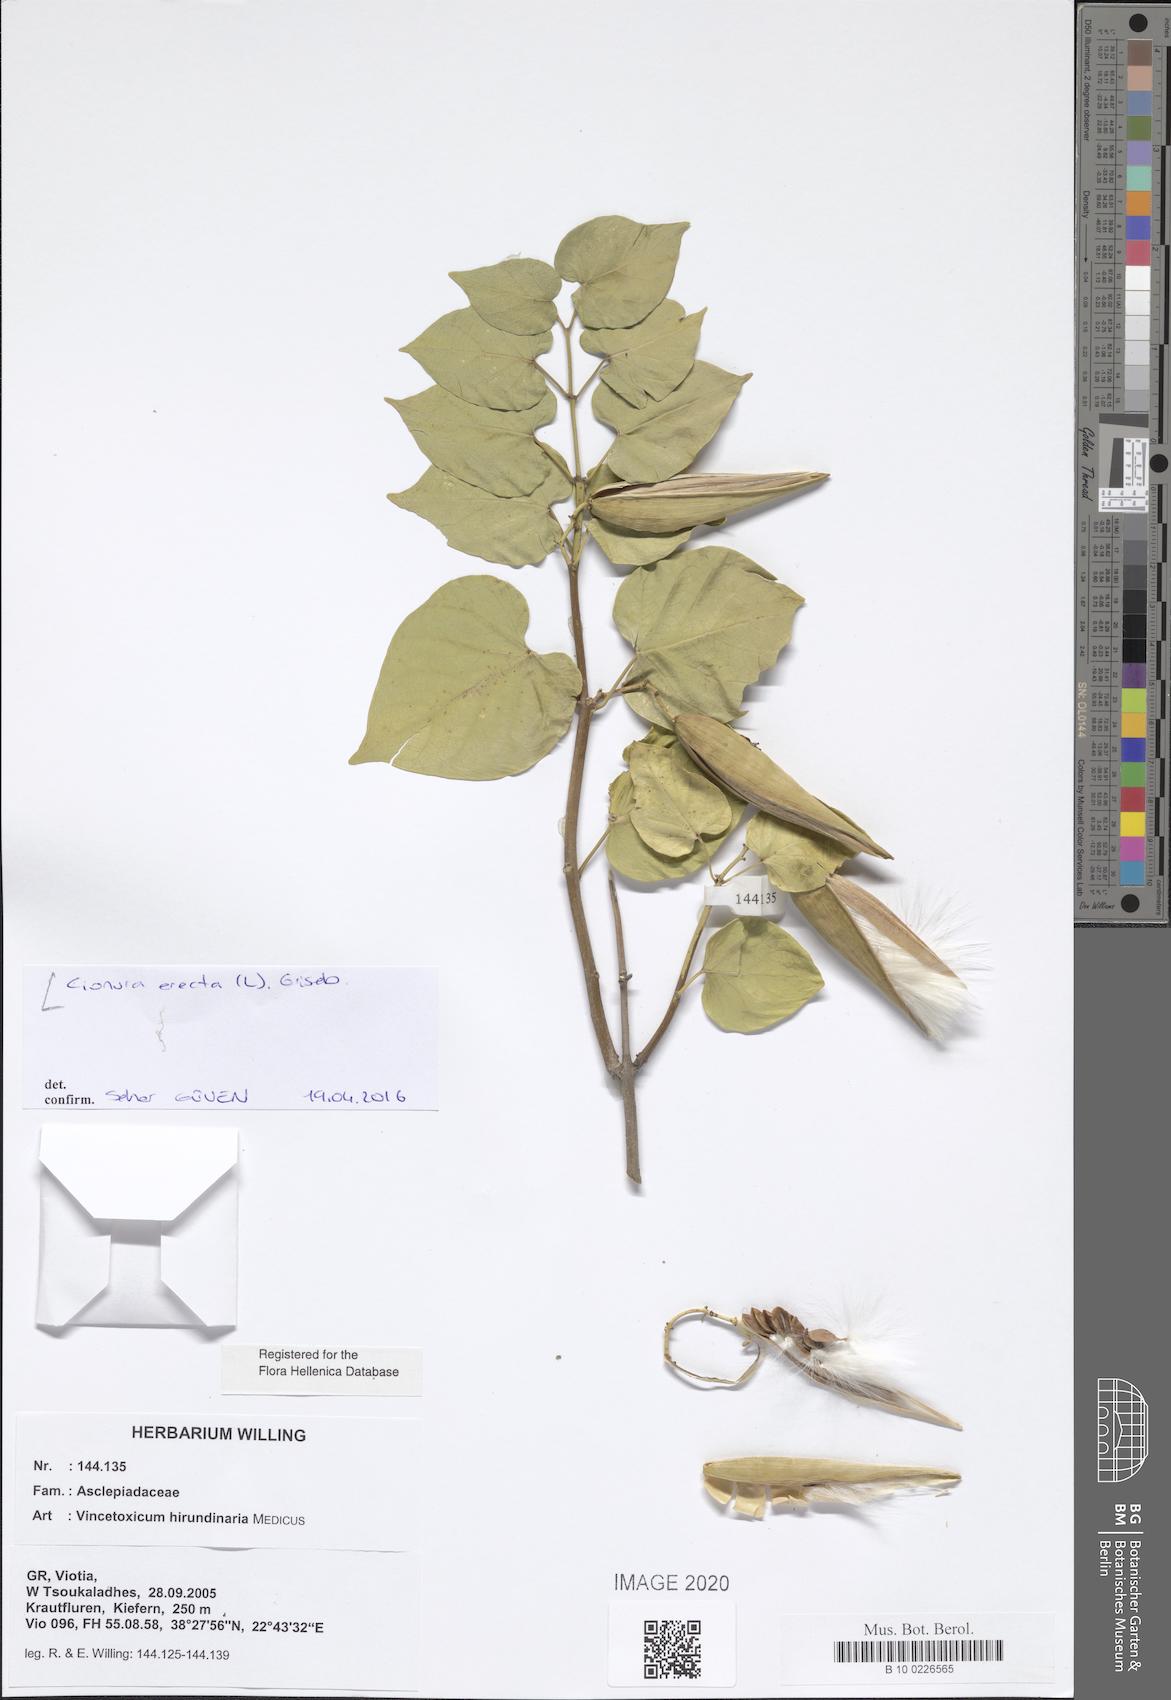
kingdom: Plantae
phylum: Tracheophyta
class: Magnoliopsida
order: Gentianales
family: Apocynaceae
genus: Cionura
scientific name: Cionura erecta
